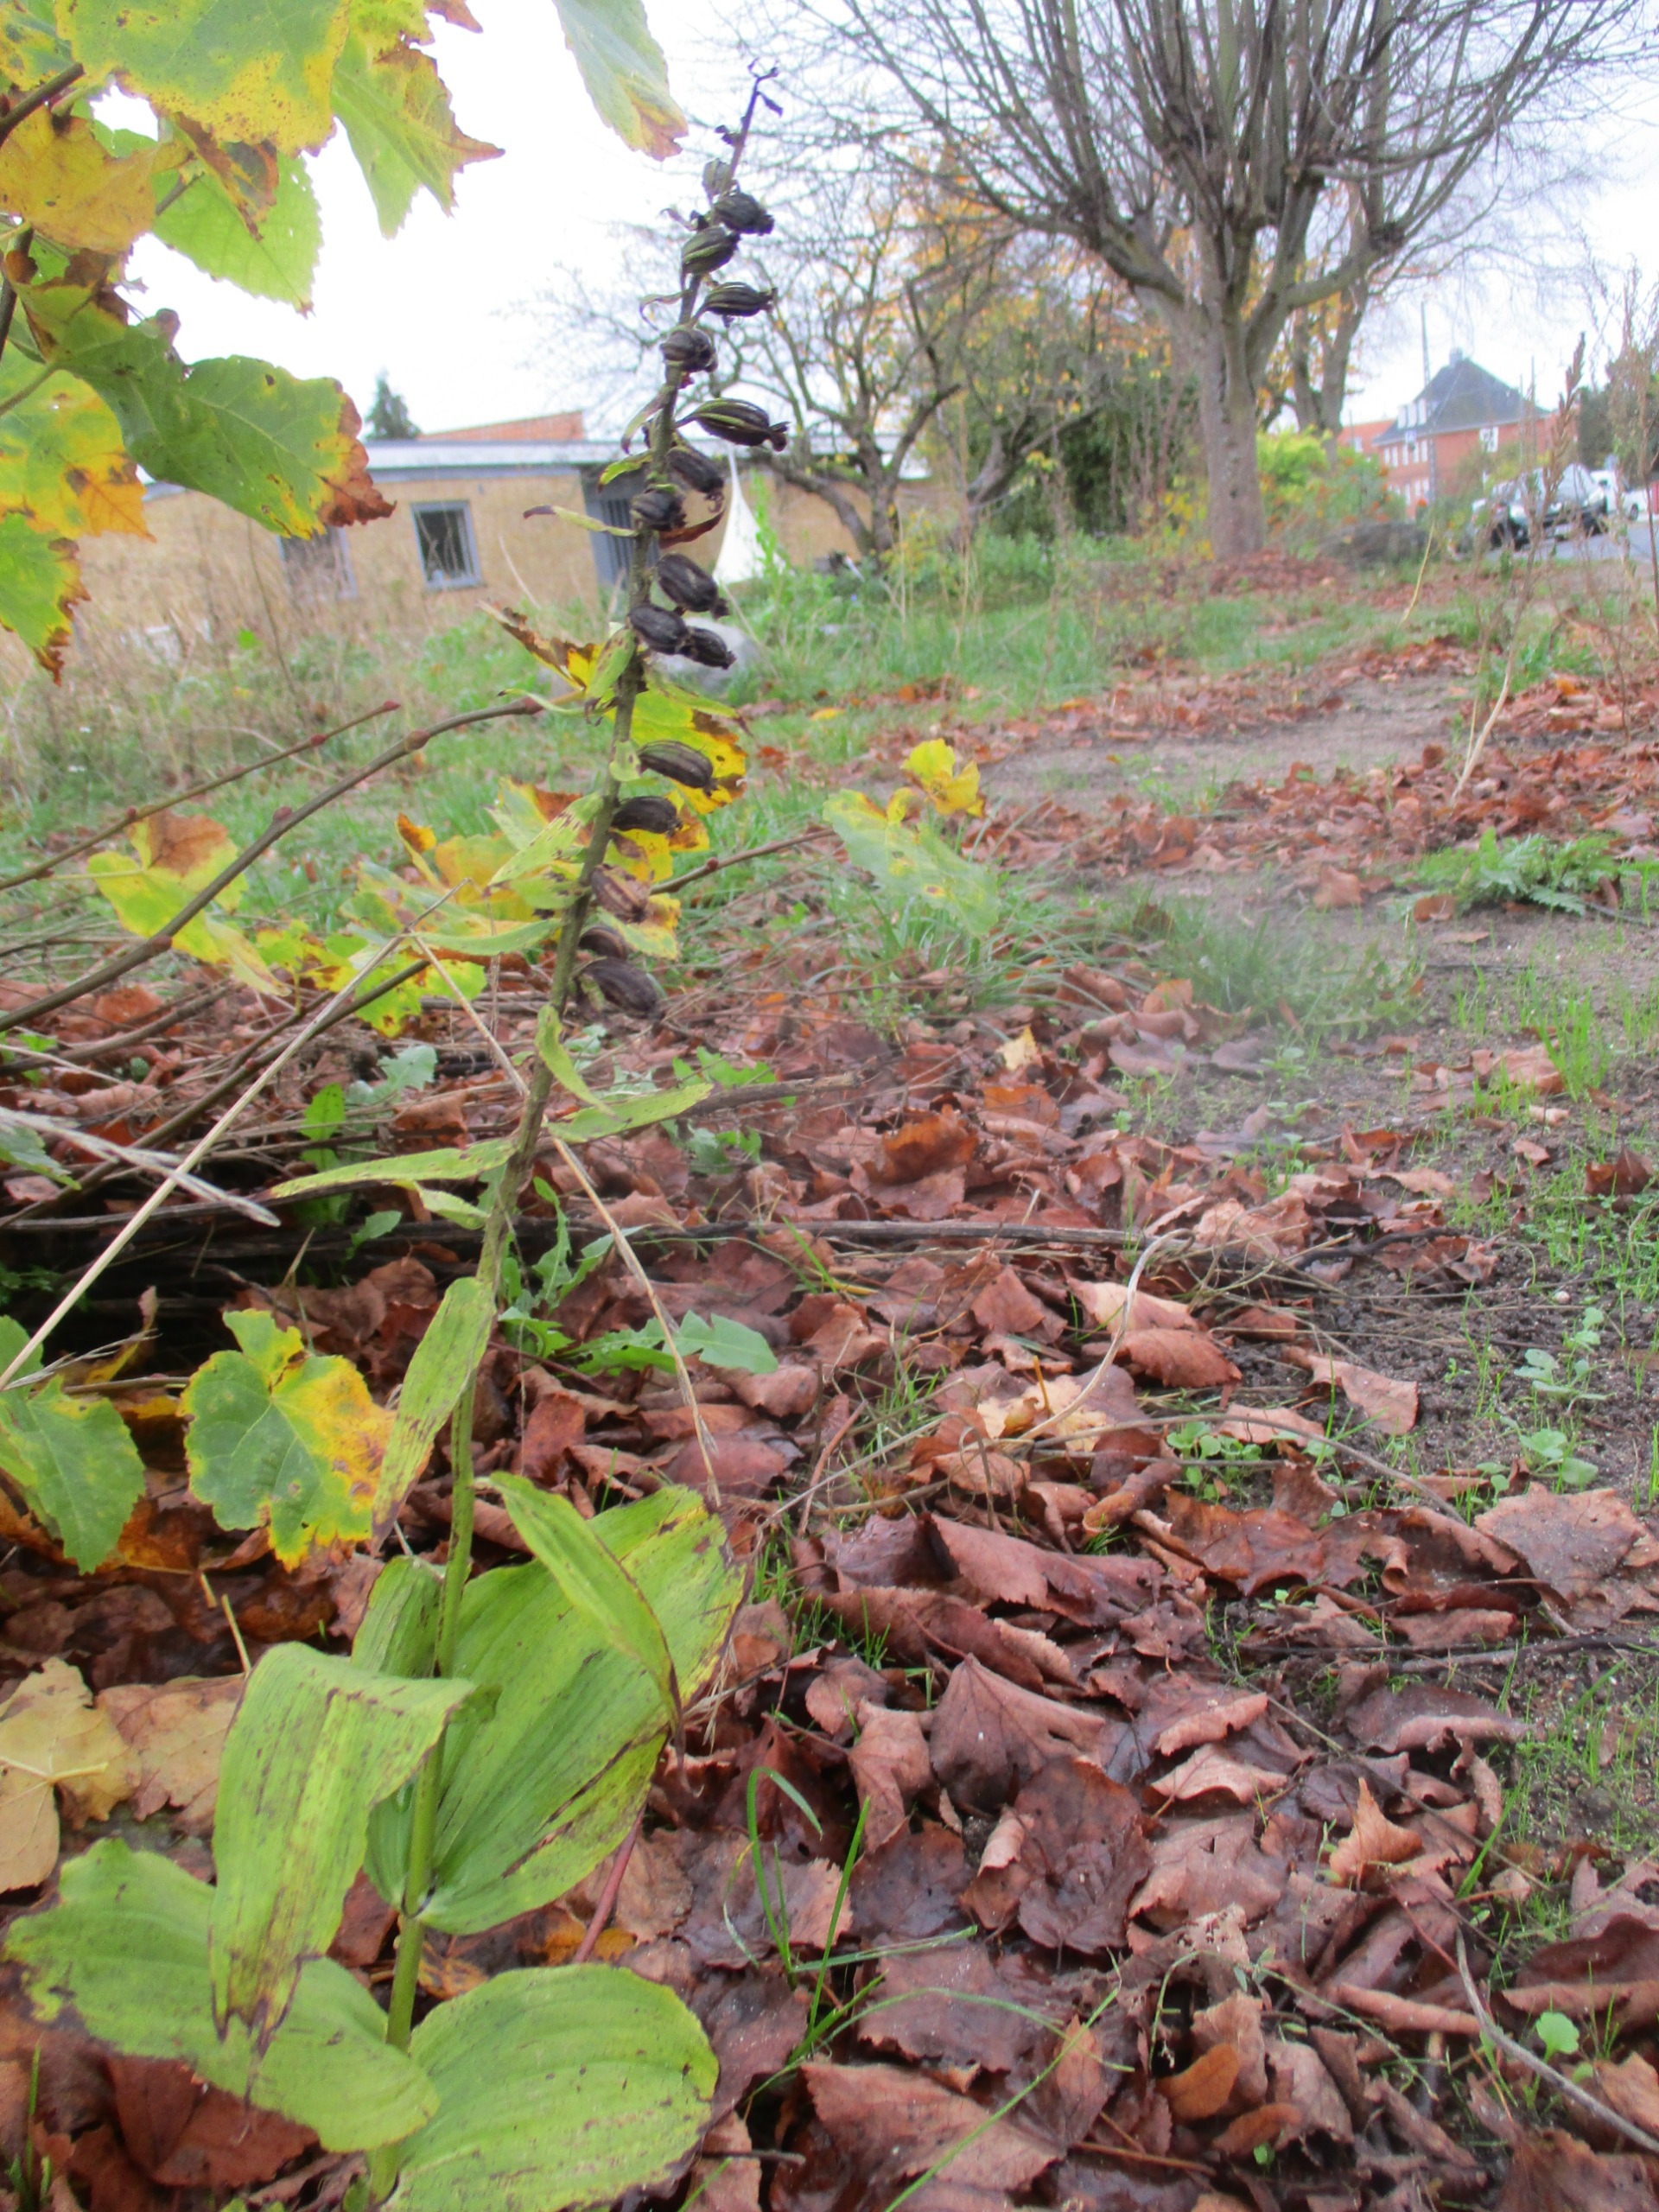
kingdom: Plantae
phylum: Tracheophyta
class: Liliopsida
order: Asparagales
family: Orchidaceae
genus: Epipactis
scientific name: Epipactis helleborine
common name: Skov-hullæbe
